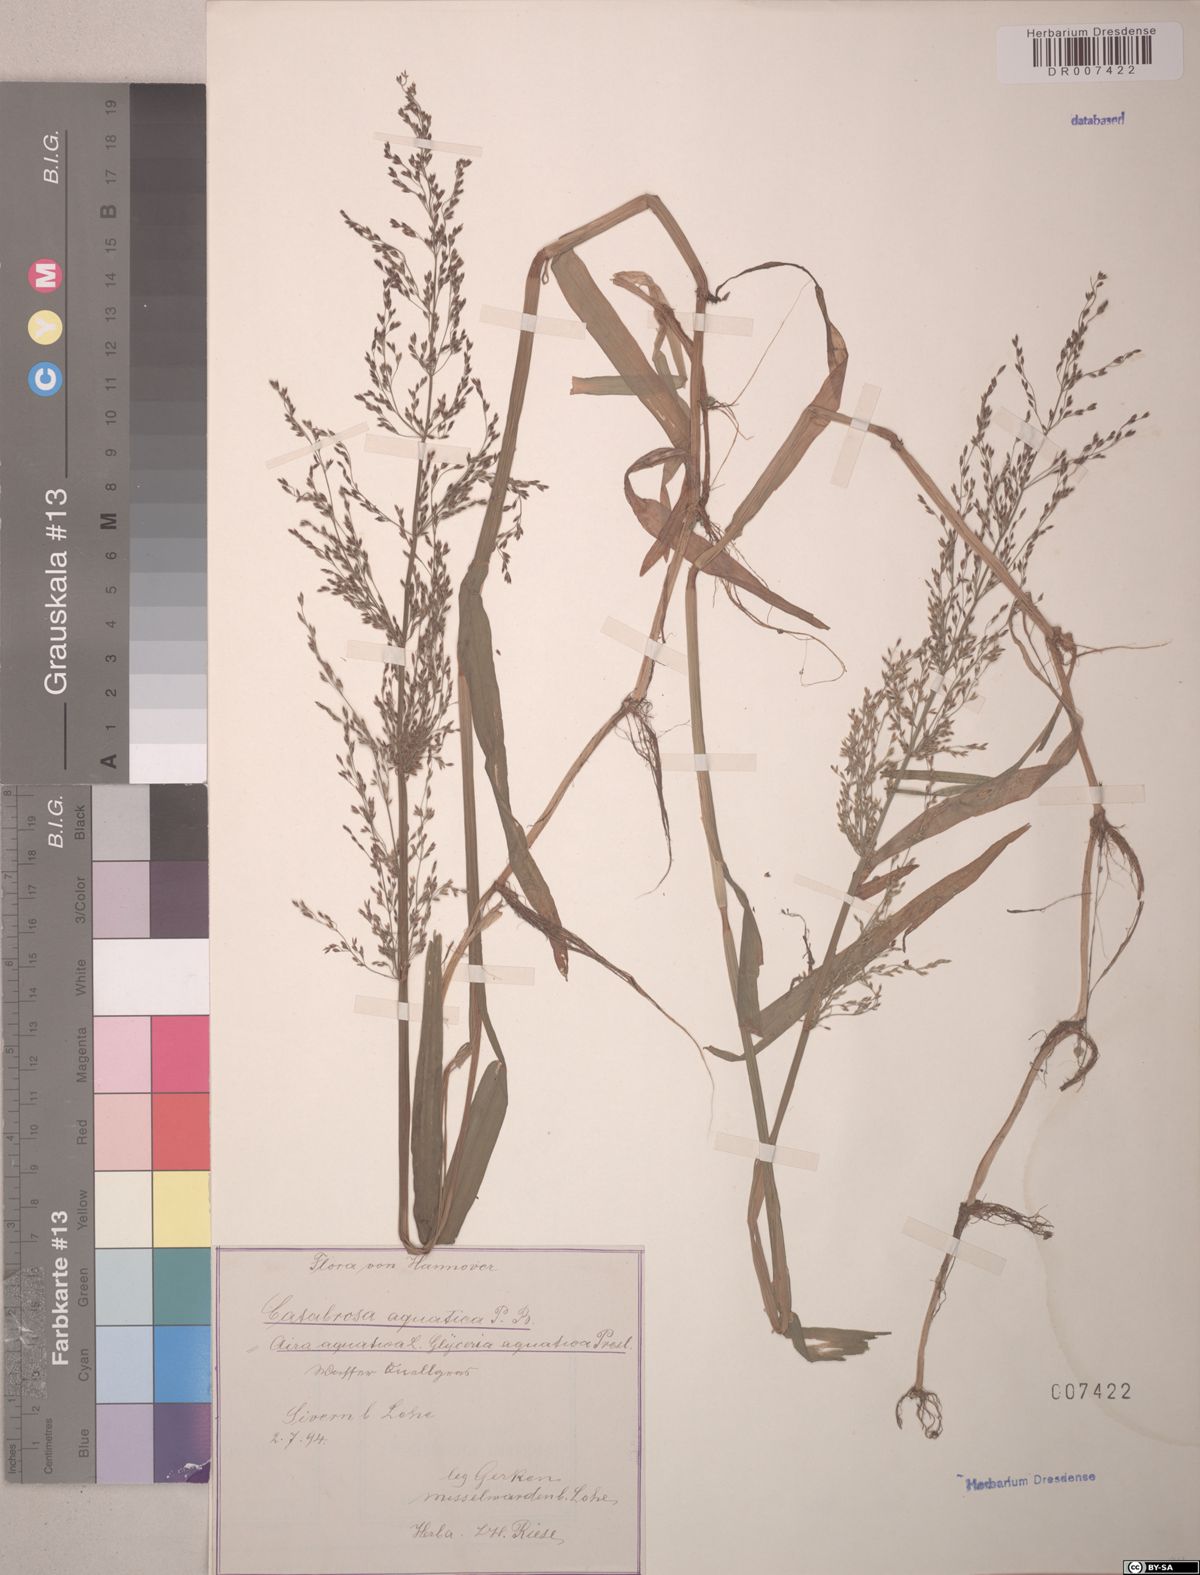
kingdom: Plantae
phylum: Tracheophyta
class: Liliopsida
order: Poales
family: Poaceae
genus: Catabrosa
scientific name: Catabrosa aquatica
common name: Whorl-grass
